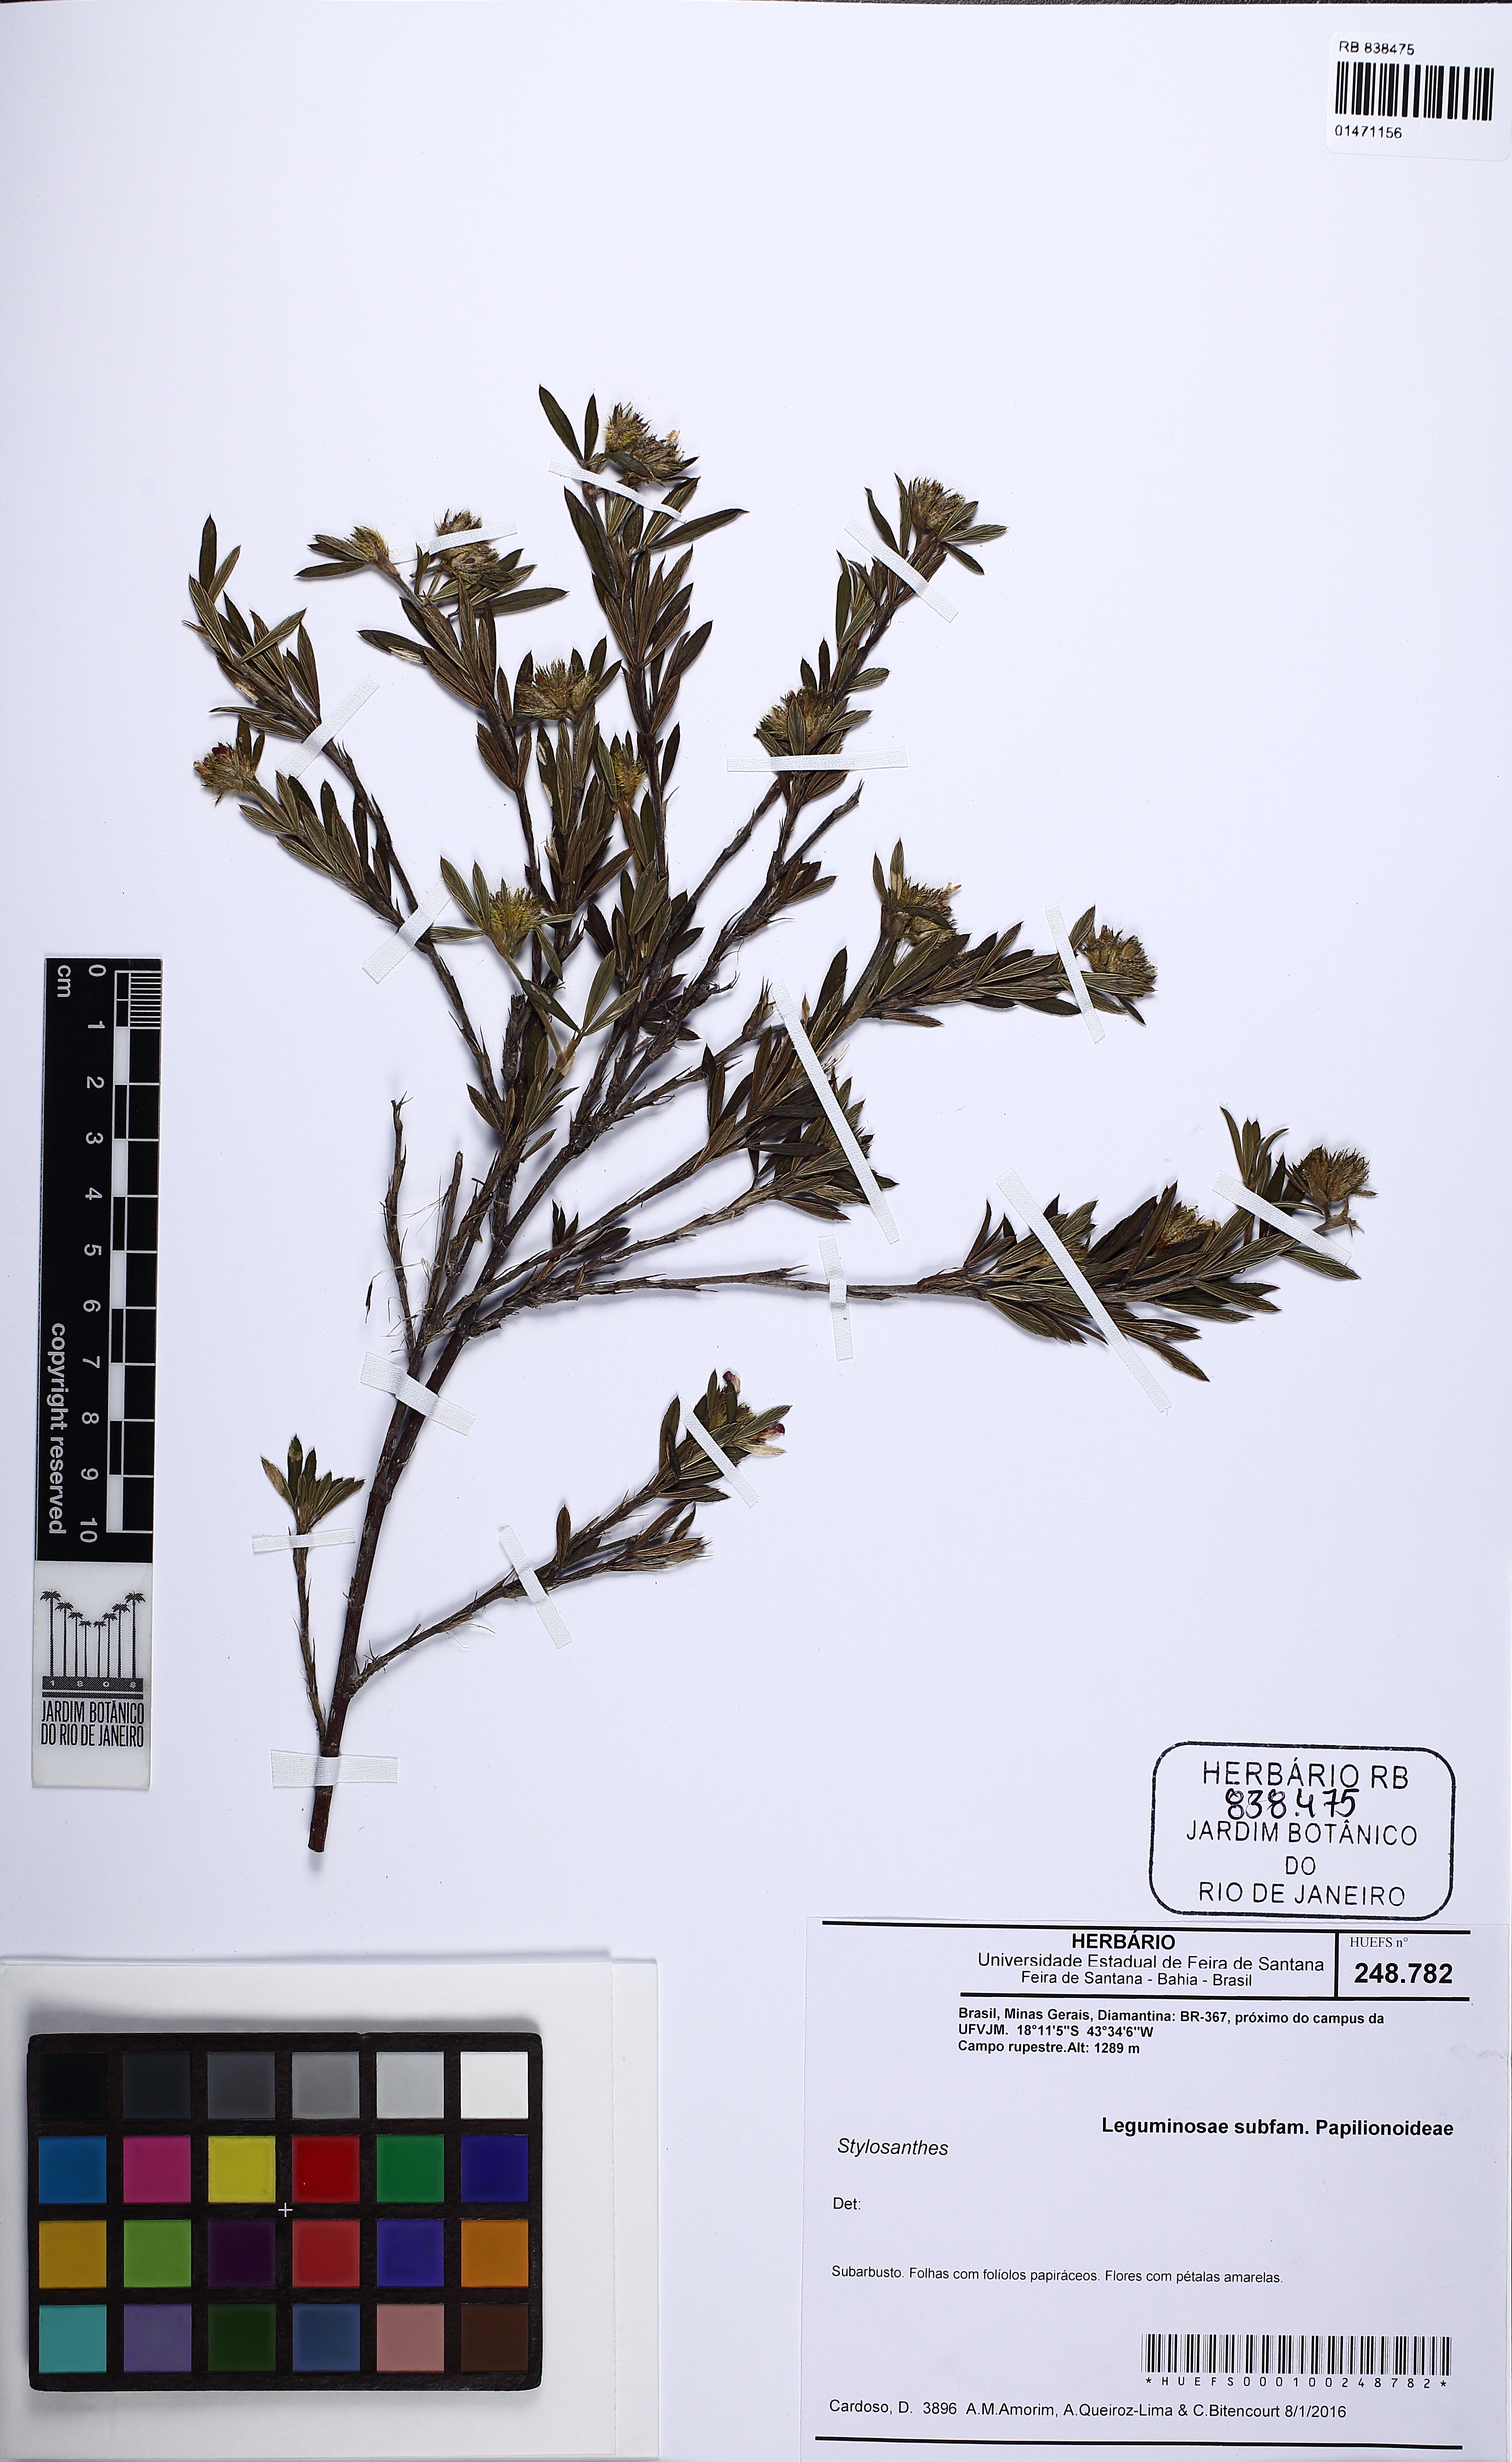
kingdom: Plantae
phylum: Tracheophyta
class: Magnoliopsida
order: Fabales
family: Fabaceae
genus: Stylosanthes
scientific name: Stylosanthes
